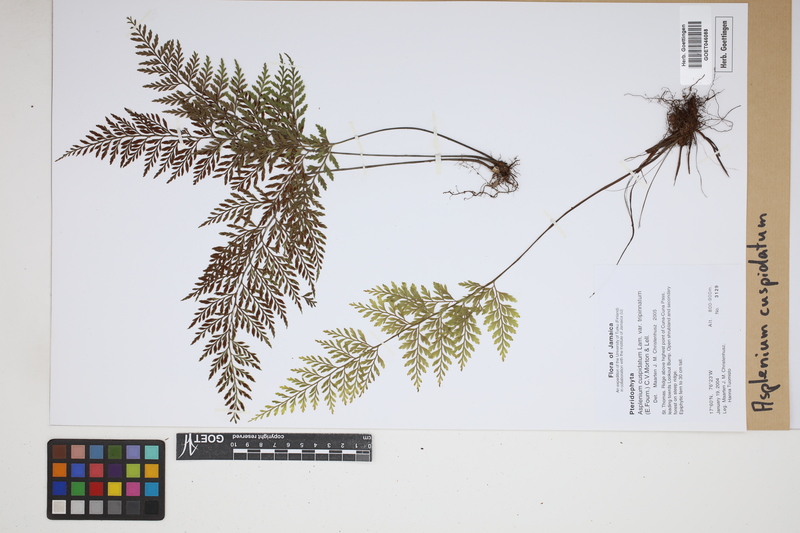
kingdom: Plantae
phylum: Tracheophyta
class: Polypodiopsida
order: Polypodiales
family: Aspleniaceae
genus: Asplenium
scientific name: Asplenium cuspidatum
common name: Eared spleenwort
